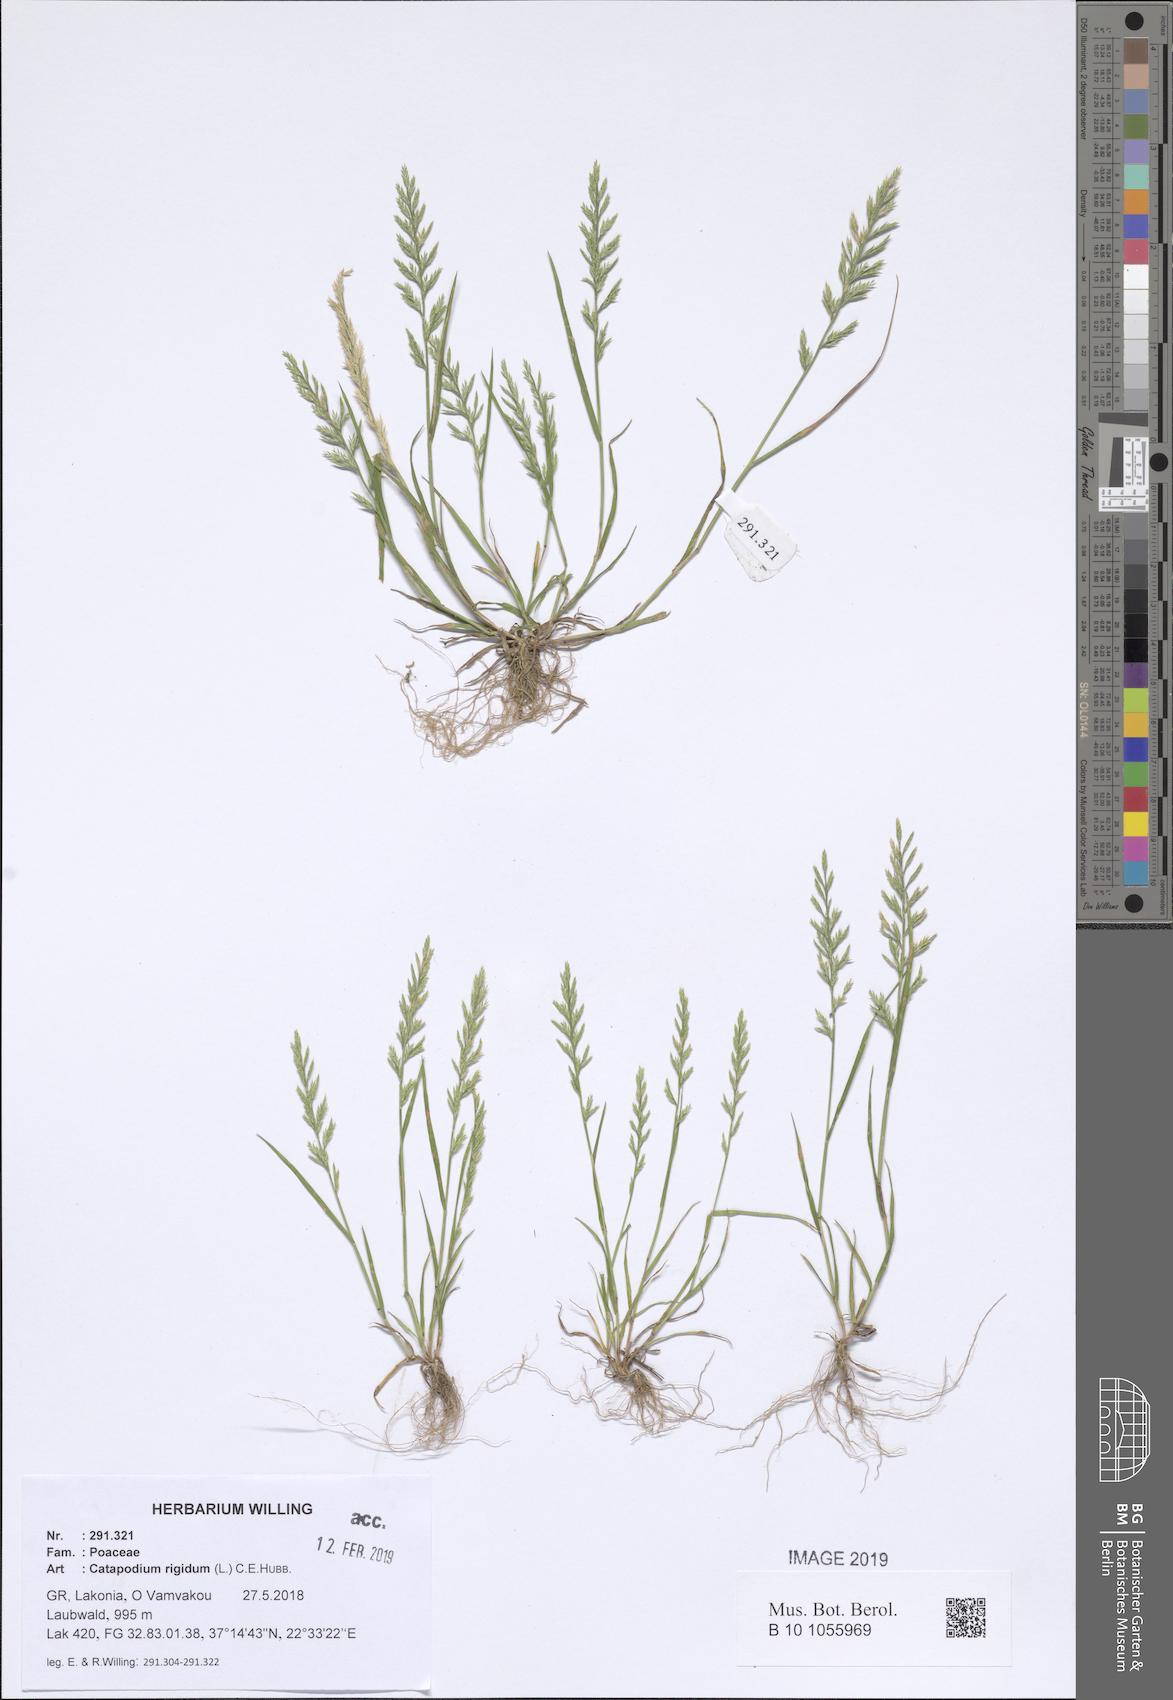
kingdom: Plantae
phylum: Tracheophyta
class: Liliopsida
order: Poales
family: Poaceae
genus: Catapodium
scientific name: Catapodium rigidum
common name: Fern-grass
